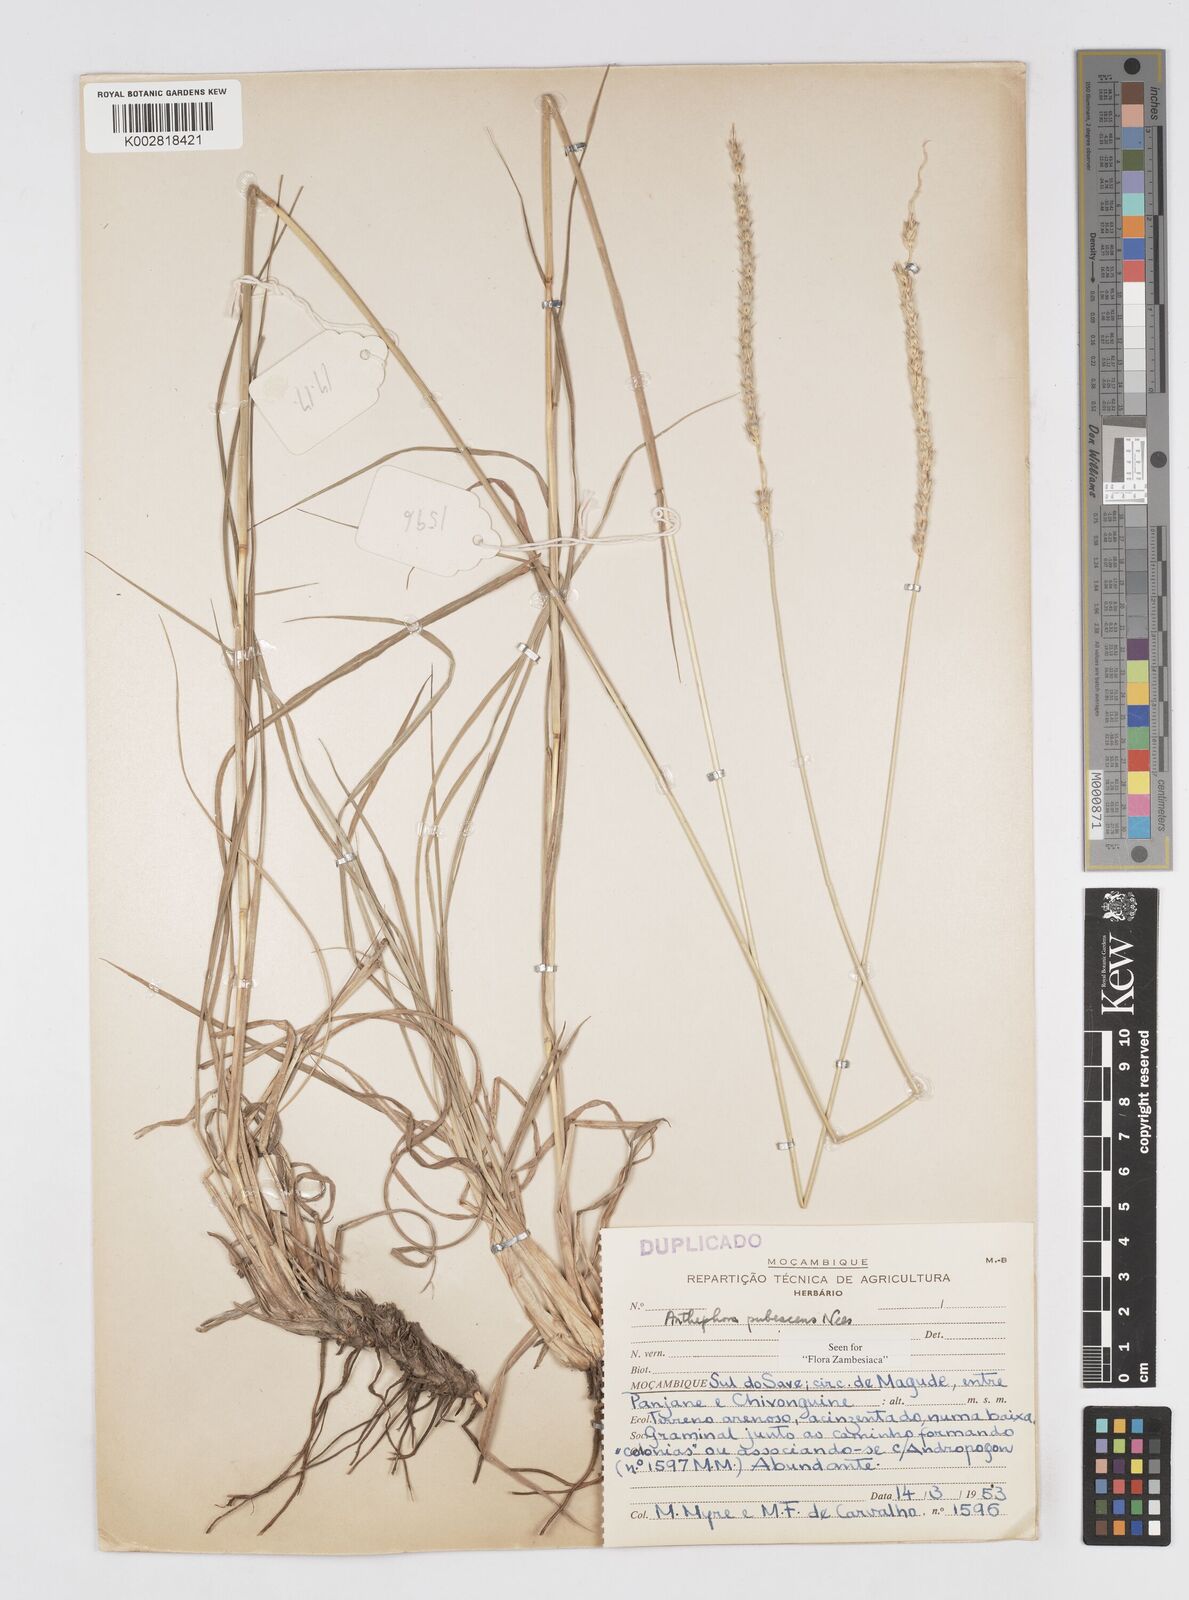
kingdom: Plantae
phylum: Tracheophyta
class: Liliopsida
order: Poales
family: Poaceae
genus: Anthephora
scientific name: Anthephora pubescens
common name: Wool grass
